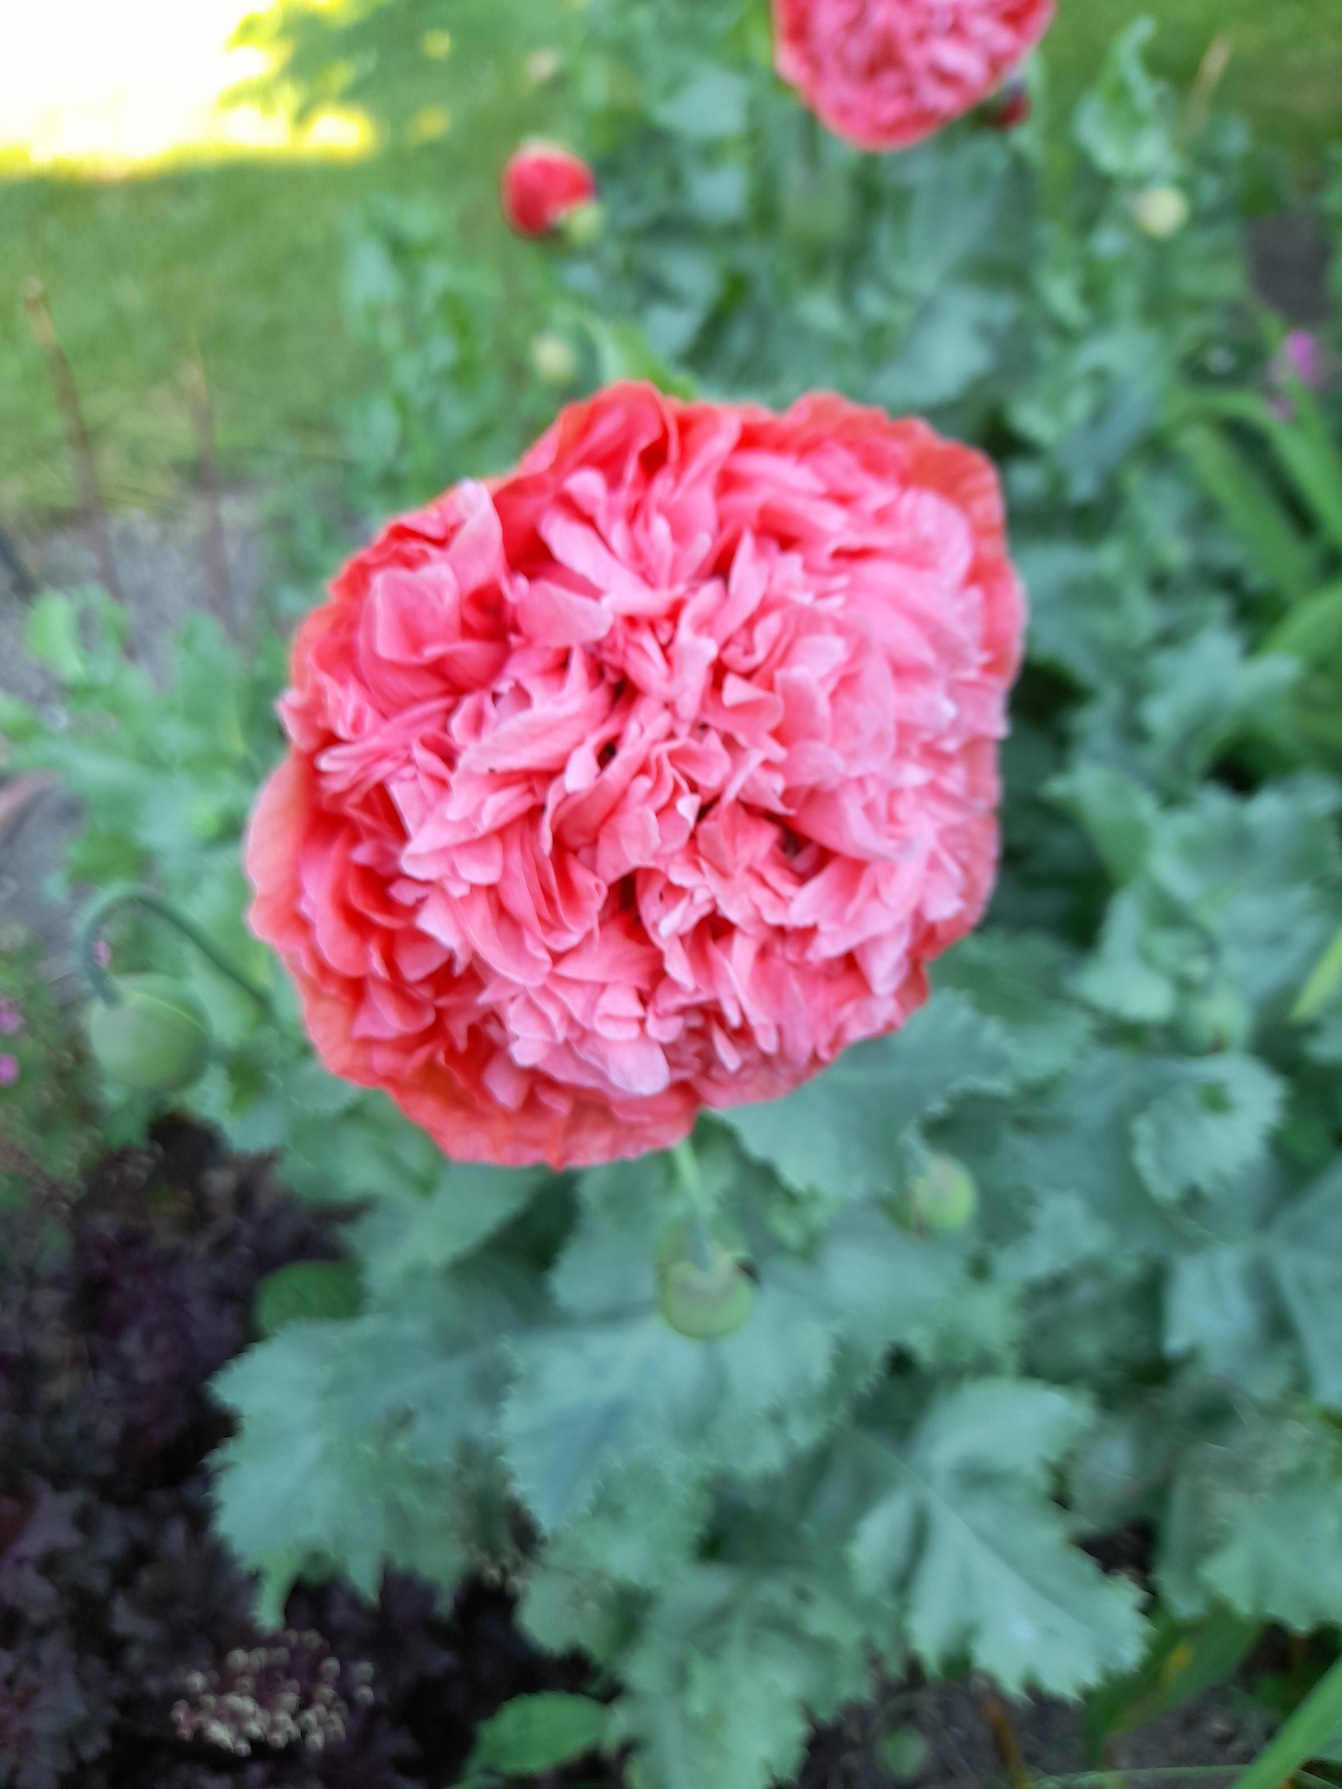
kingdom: Plantae
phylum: Tracheophyta
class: Magnoliopsida
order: Ranunculales
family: Papaveraceae
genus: Papaver
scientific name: Papaver somniferum
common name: Opium-valmue
